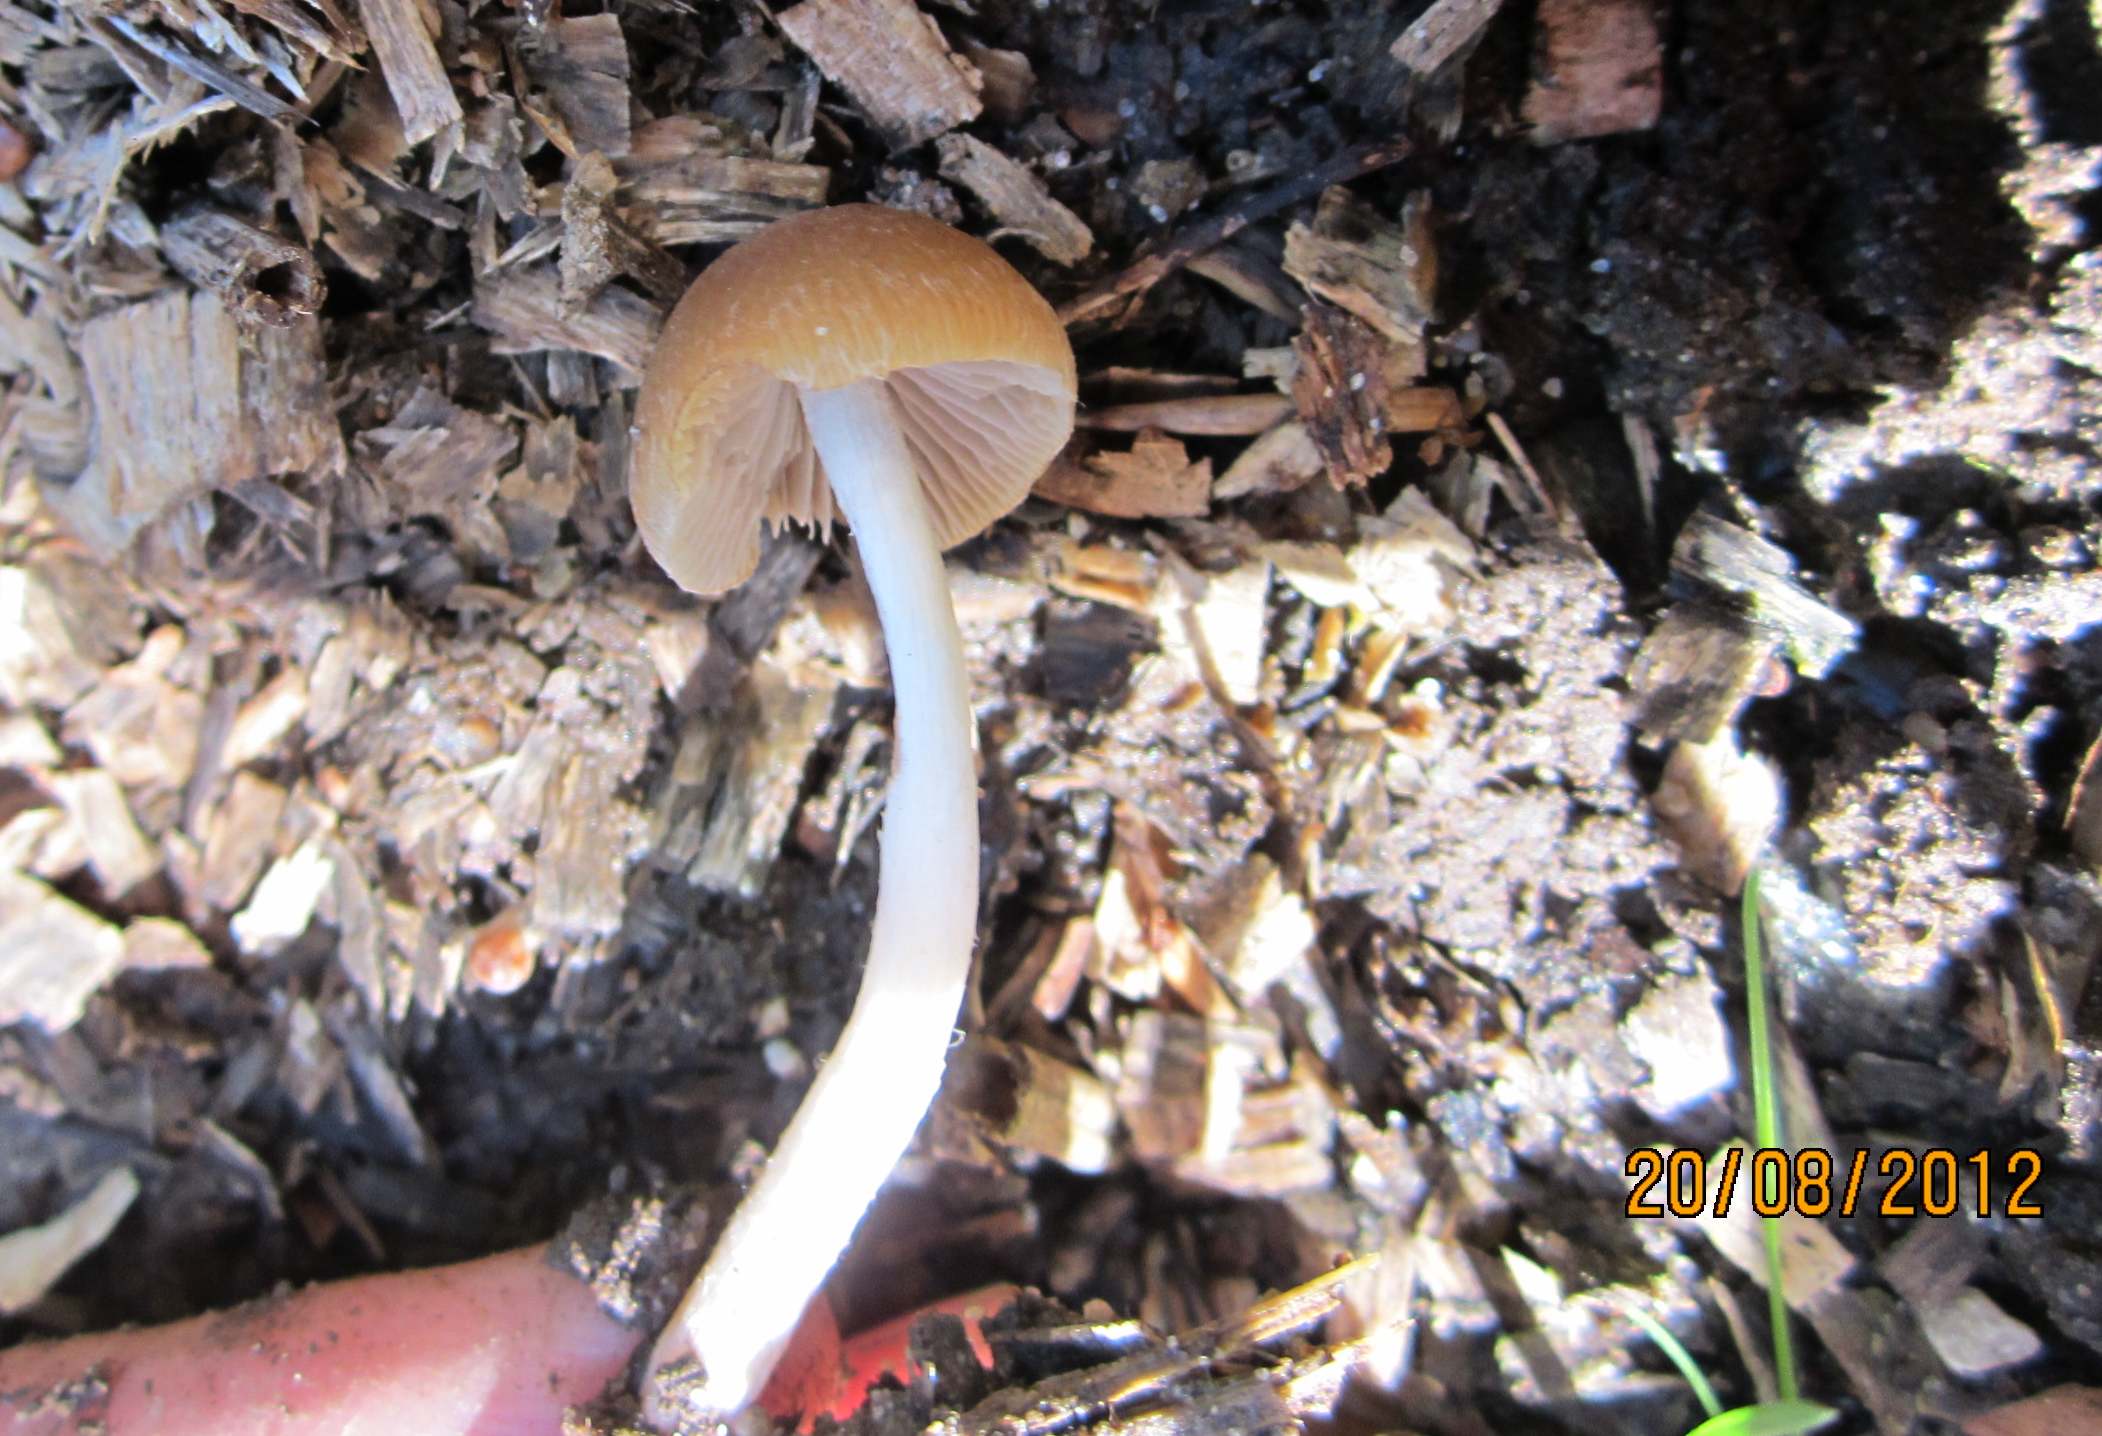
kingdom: Fungi
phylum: Basidiomycota
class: Agaricomycetes
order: Agaricales
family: Psathyrellaceae
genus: Psathyrella
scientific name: Psathyrella obtusata
